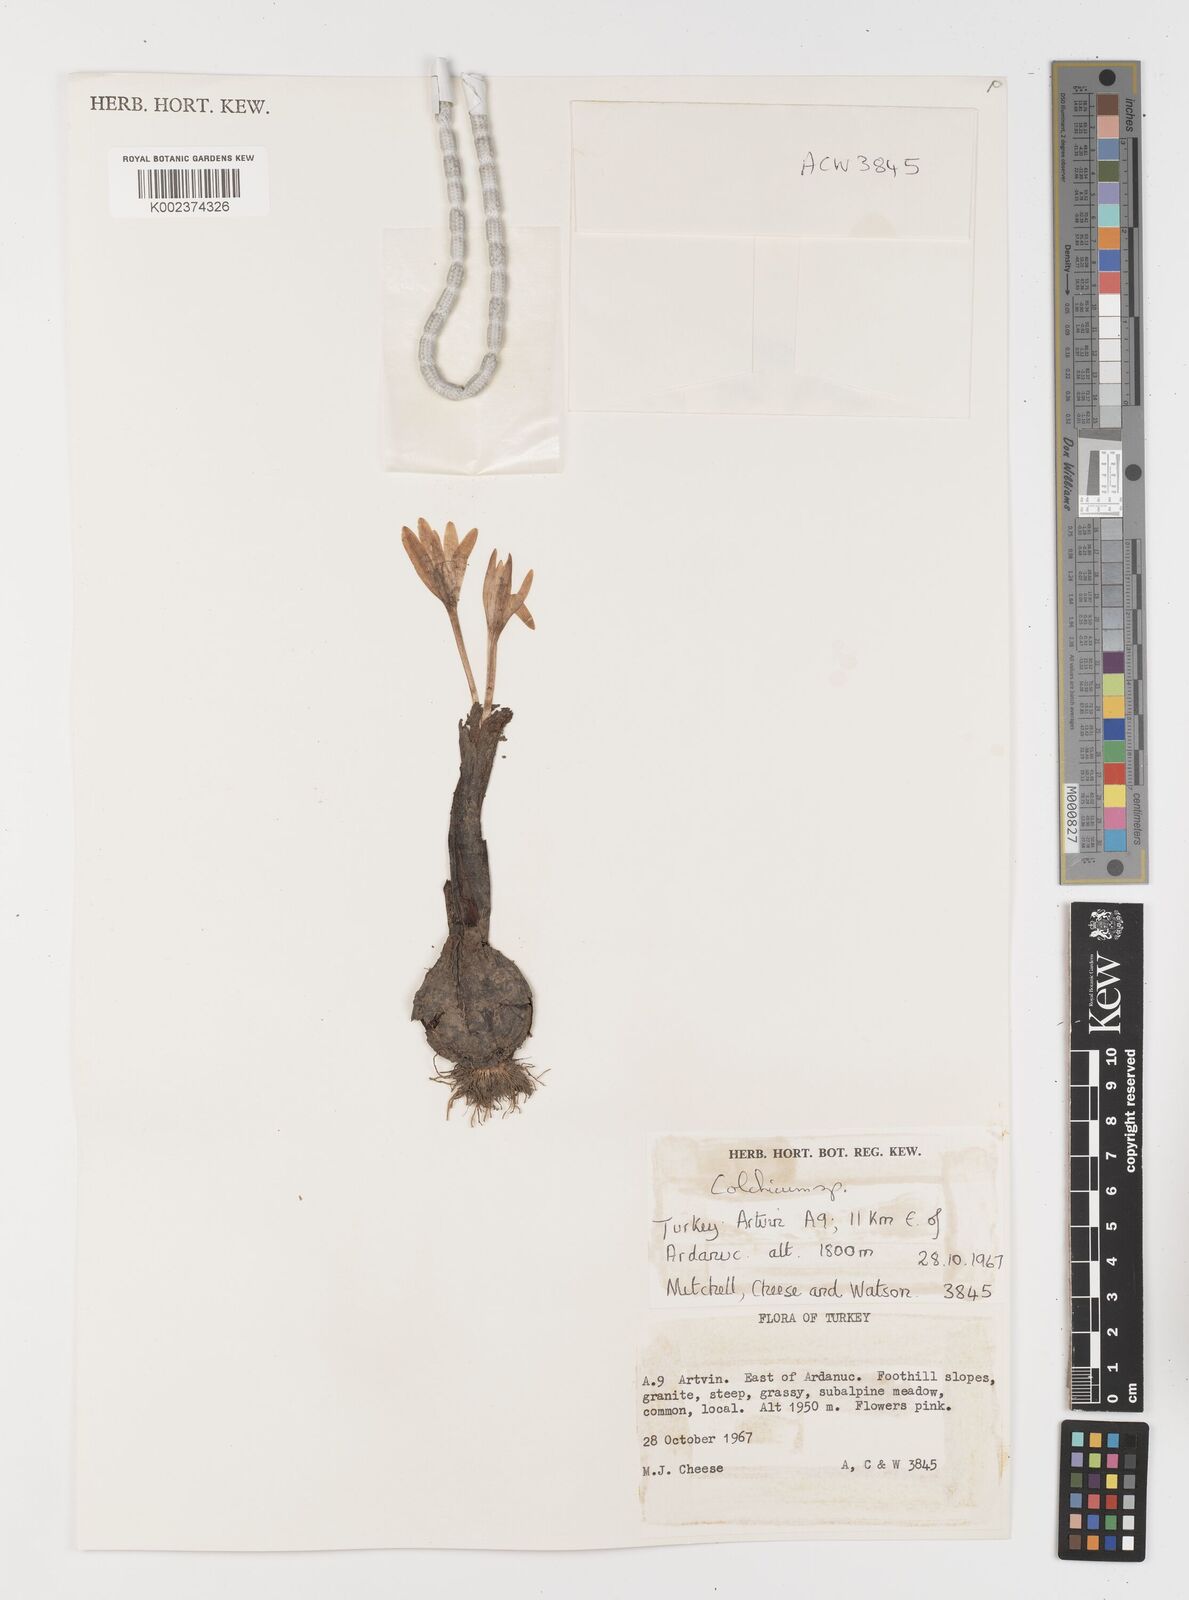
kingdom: Plantae
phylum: Tracheophyta
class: Liliopsida
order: Liliales
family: Colchicaceae
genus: Colchicum
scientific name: Colchicum
